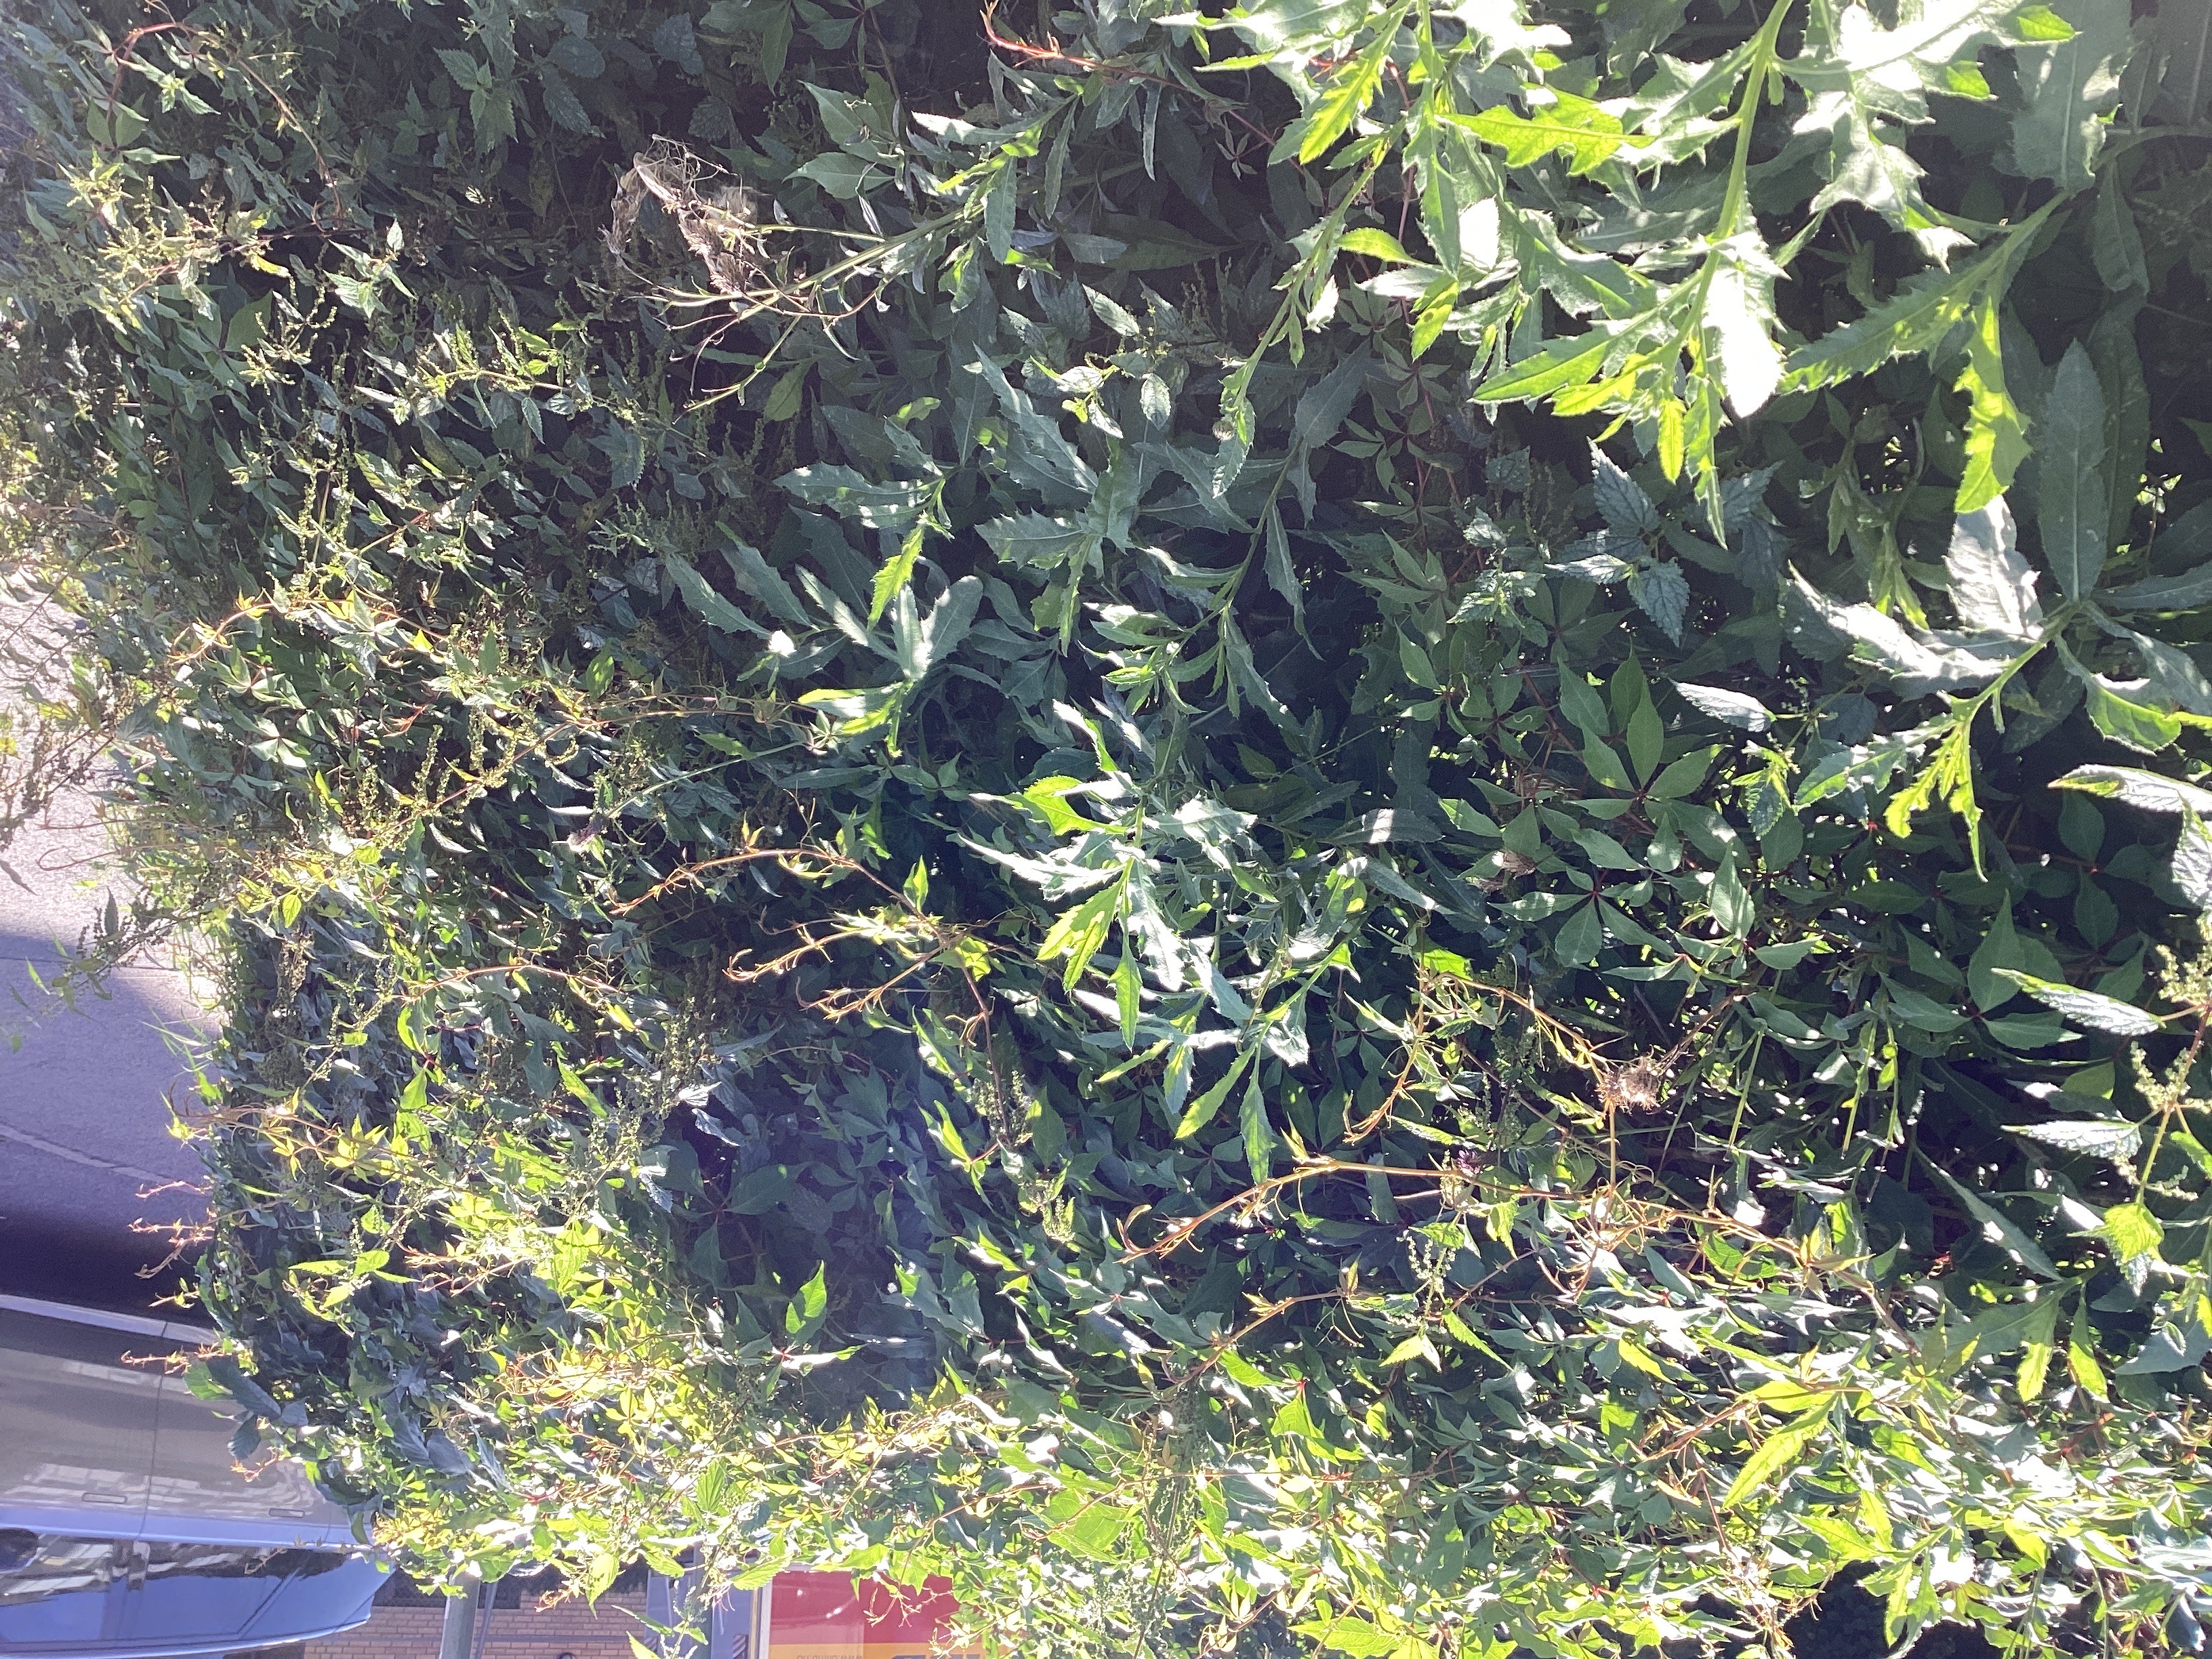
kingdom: Plantae
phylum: Tracheophyta
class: Magnoliopsida
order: Vitales
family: Vitaceae
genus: Parthenocissus
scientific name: Parthenocissus quinquefolia
